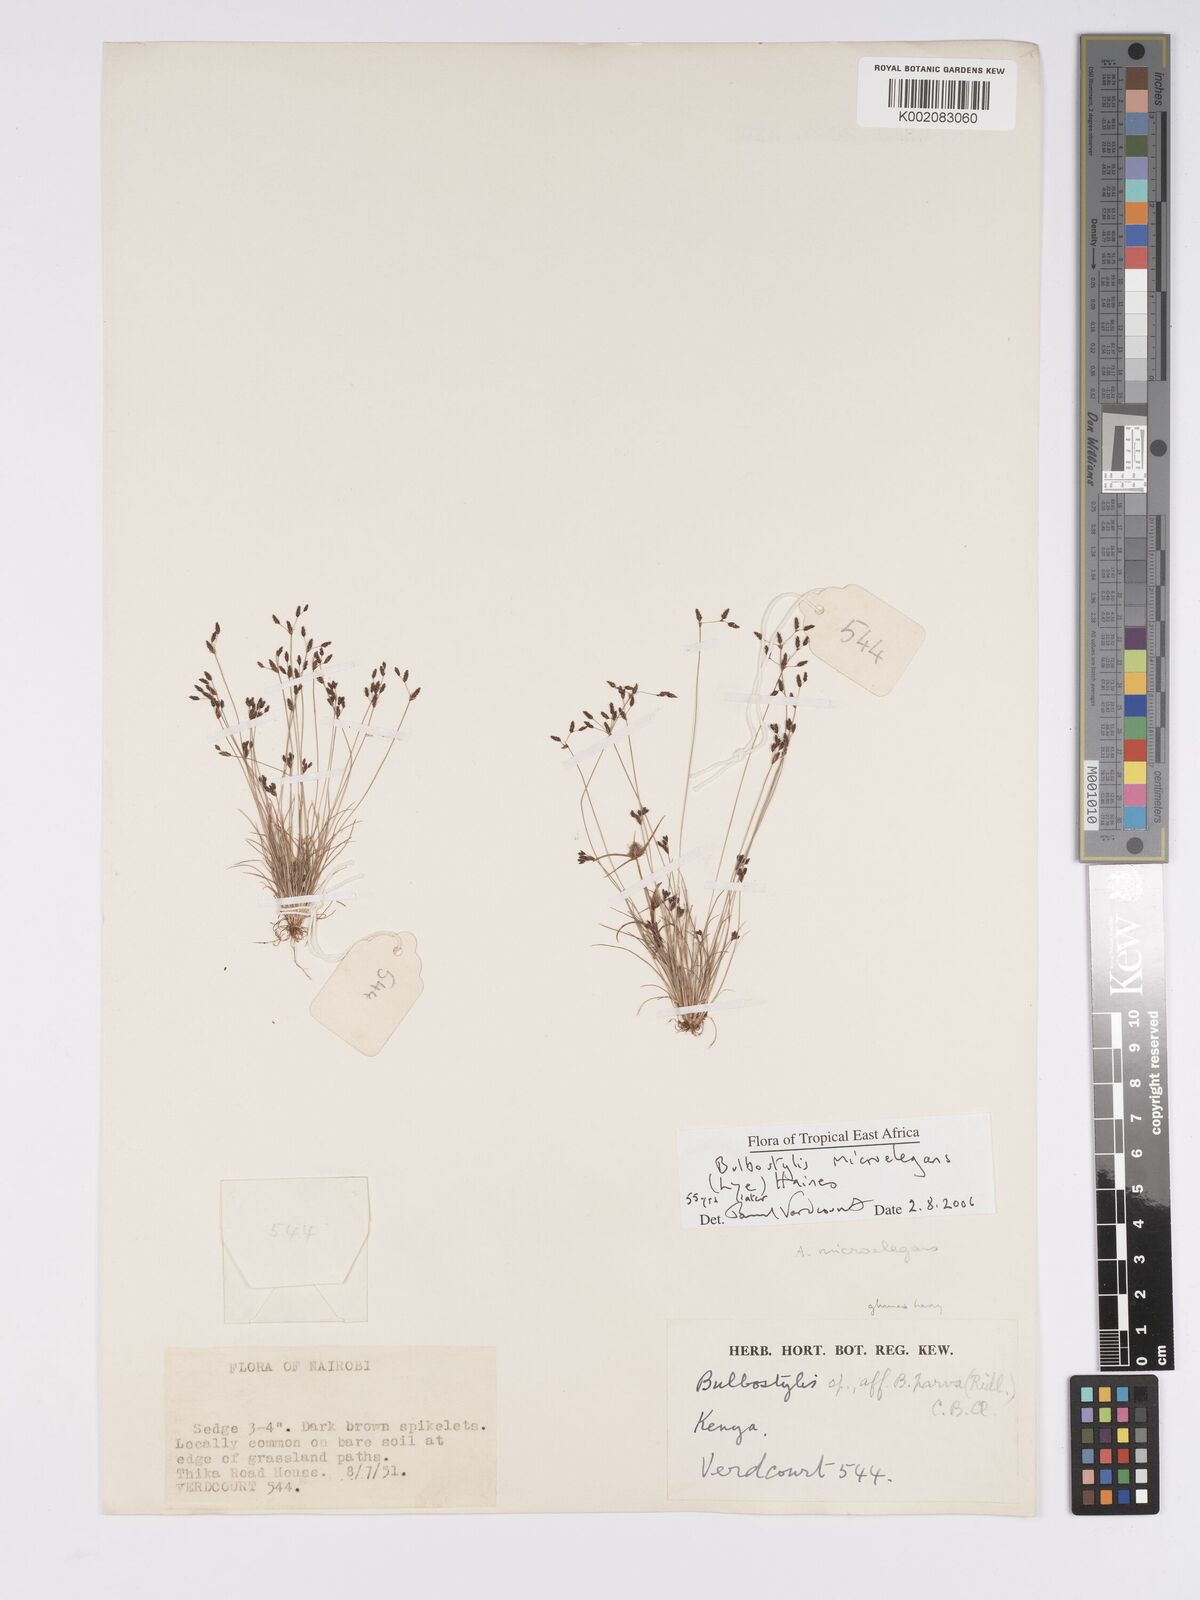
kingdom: Plantae
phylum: Tracheophyta
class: Liliopsida
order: Poales
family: Cyperaceae
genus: Bulbostylis
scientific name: Bulbostylis microelegans
